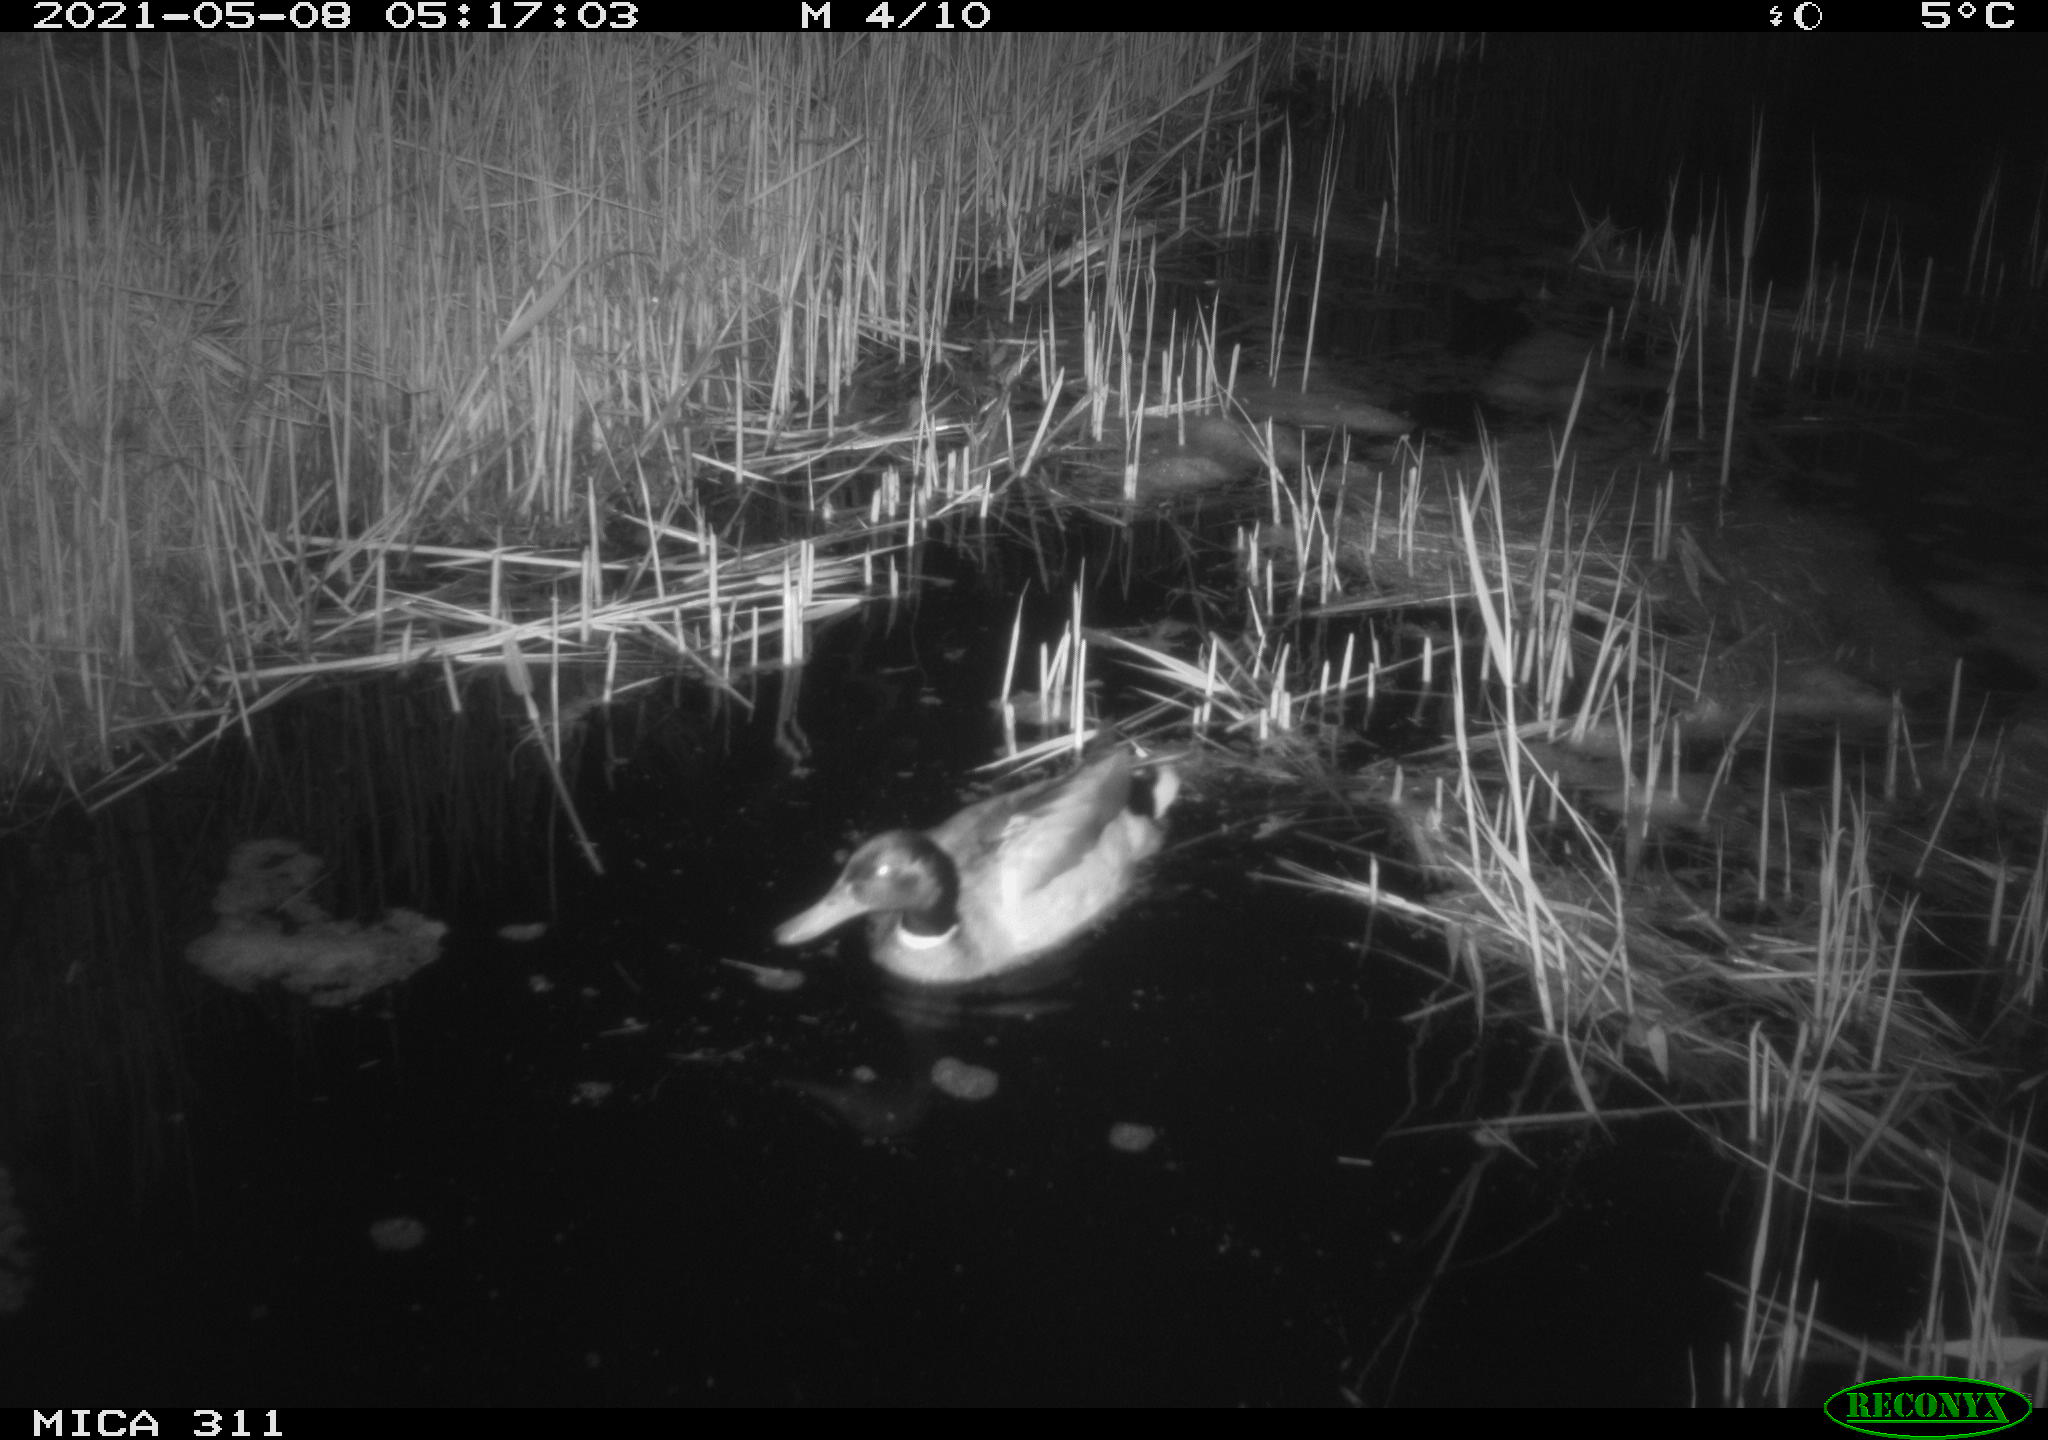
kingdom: Animalia
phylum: Chordata
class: Aves
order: Anseriformes
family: Anatidae
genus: Anas
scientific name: Anas platyrhynchos
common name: Mallard
